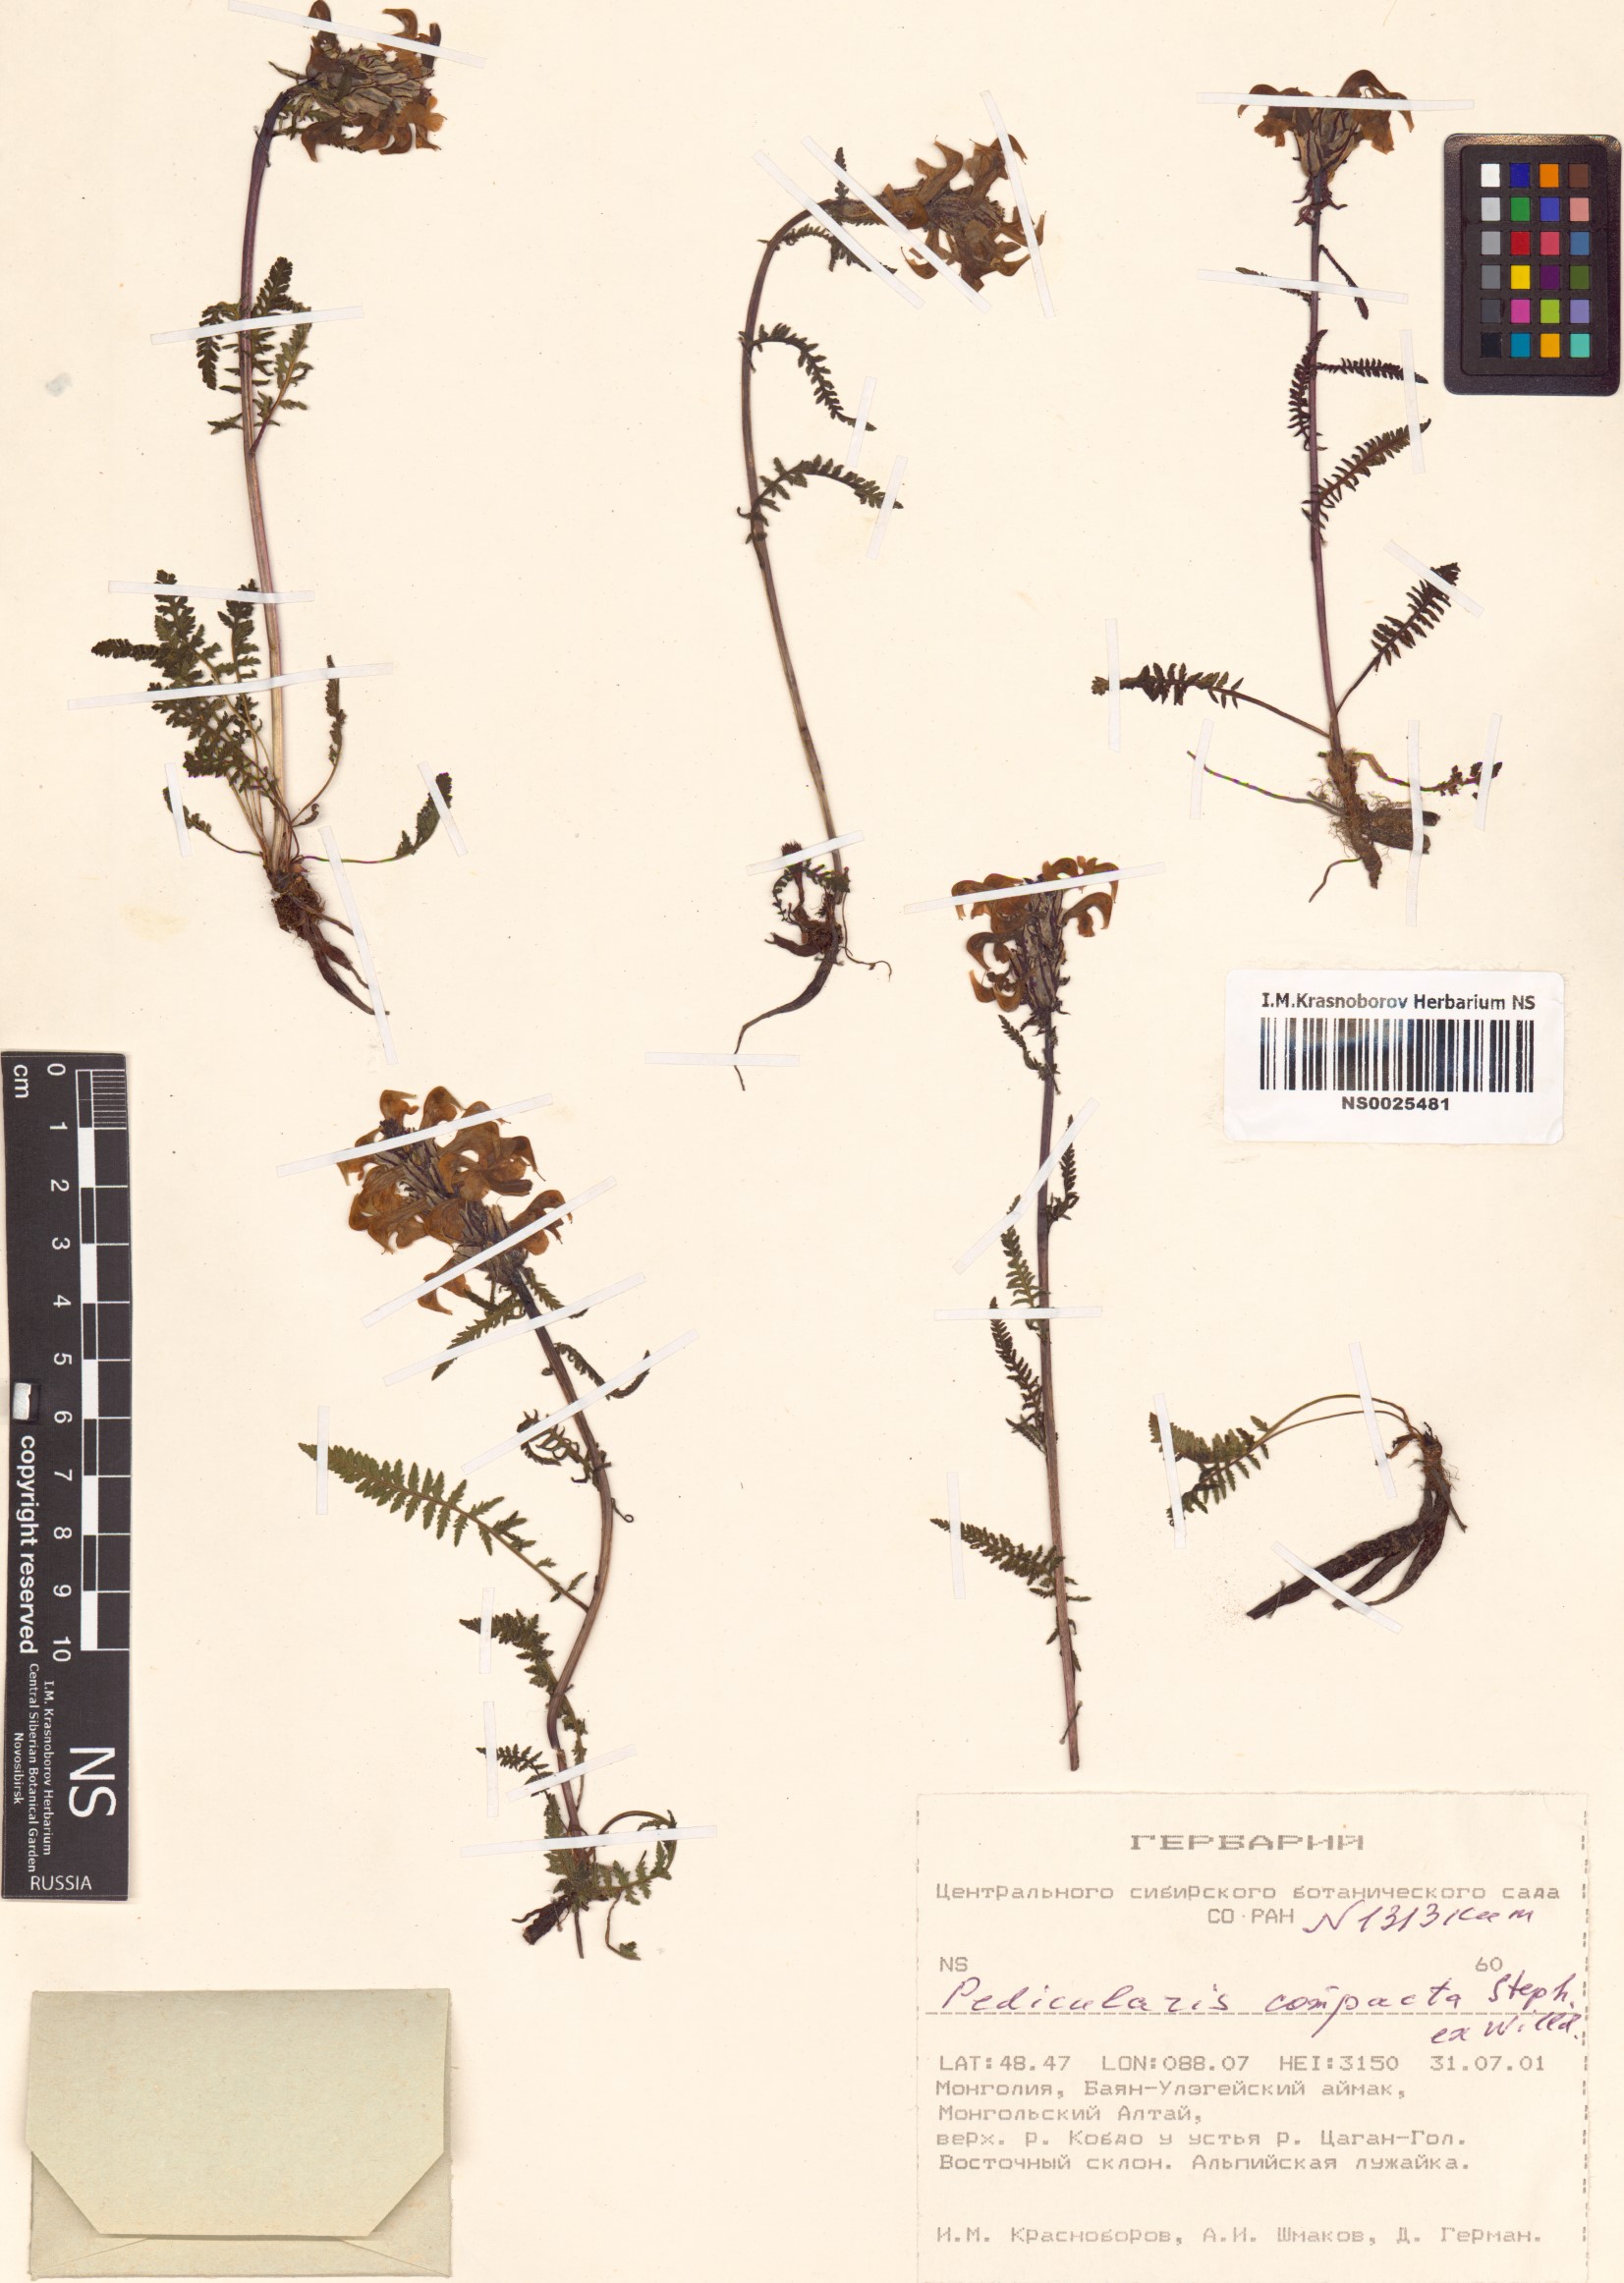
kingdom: Plantae
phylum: Tracheophyta
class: Magnoliopsida
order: Lamiales
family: Orobanchaceae
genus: Pedicularis
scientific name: Pedicularis compacta
